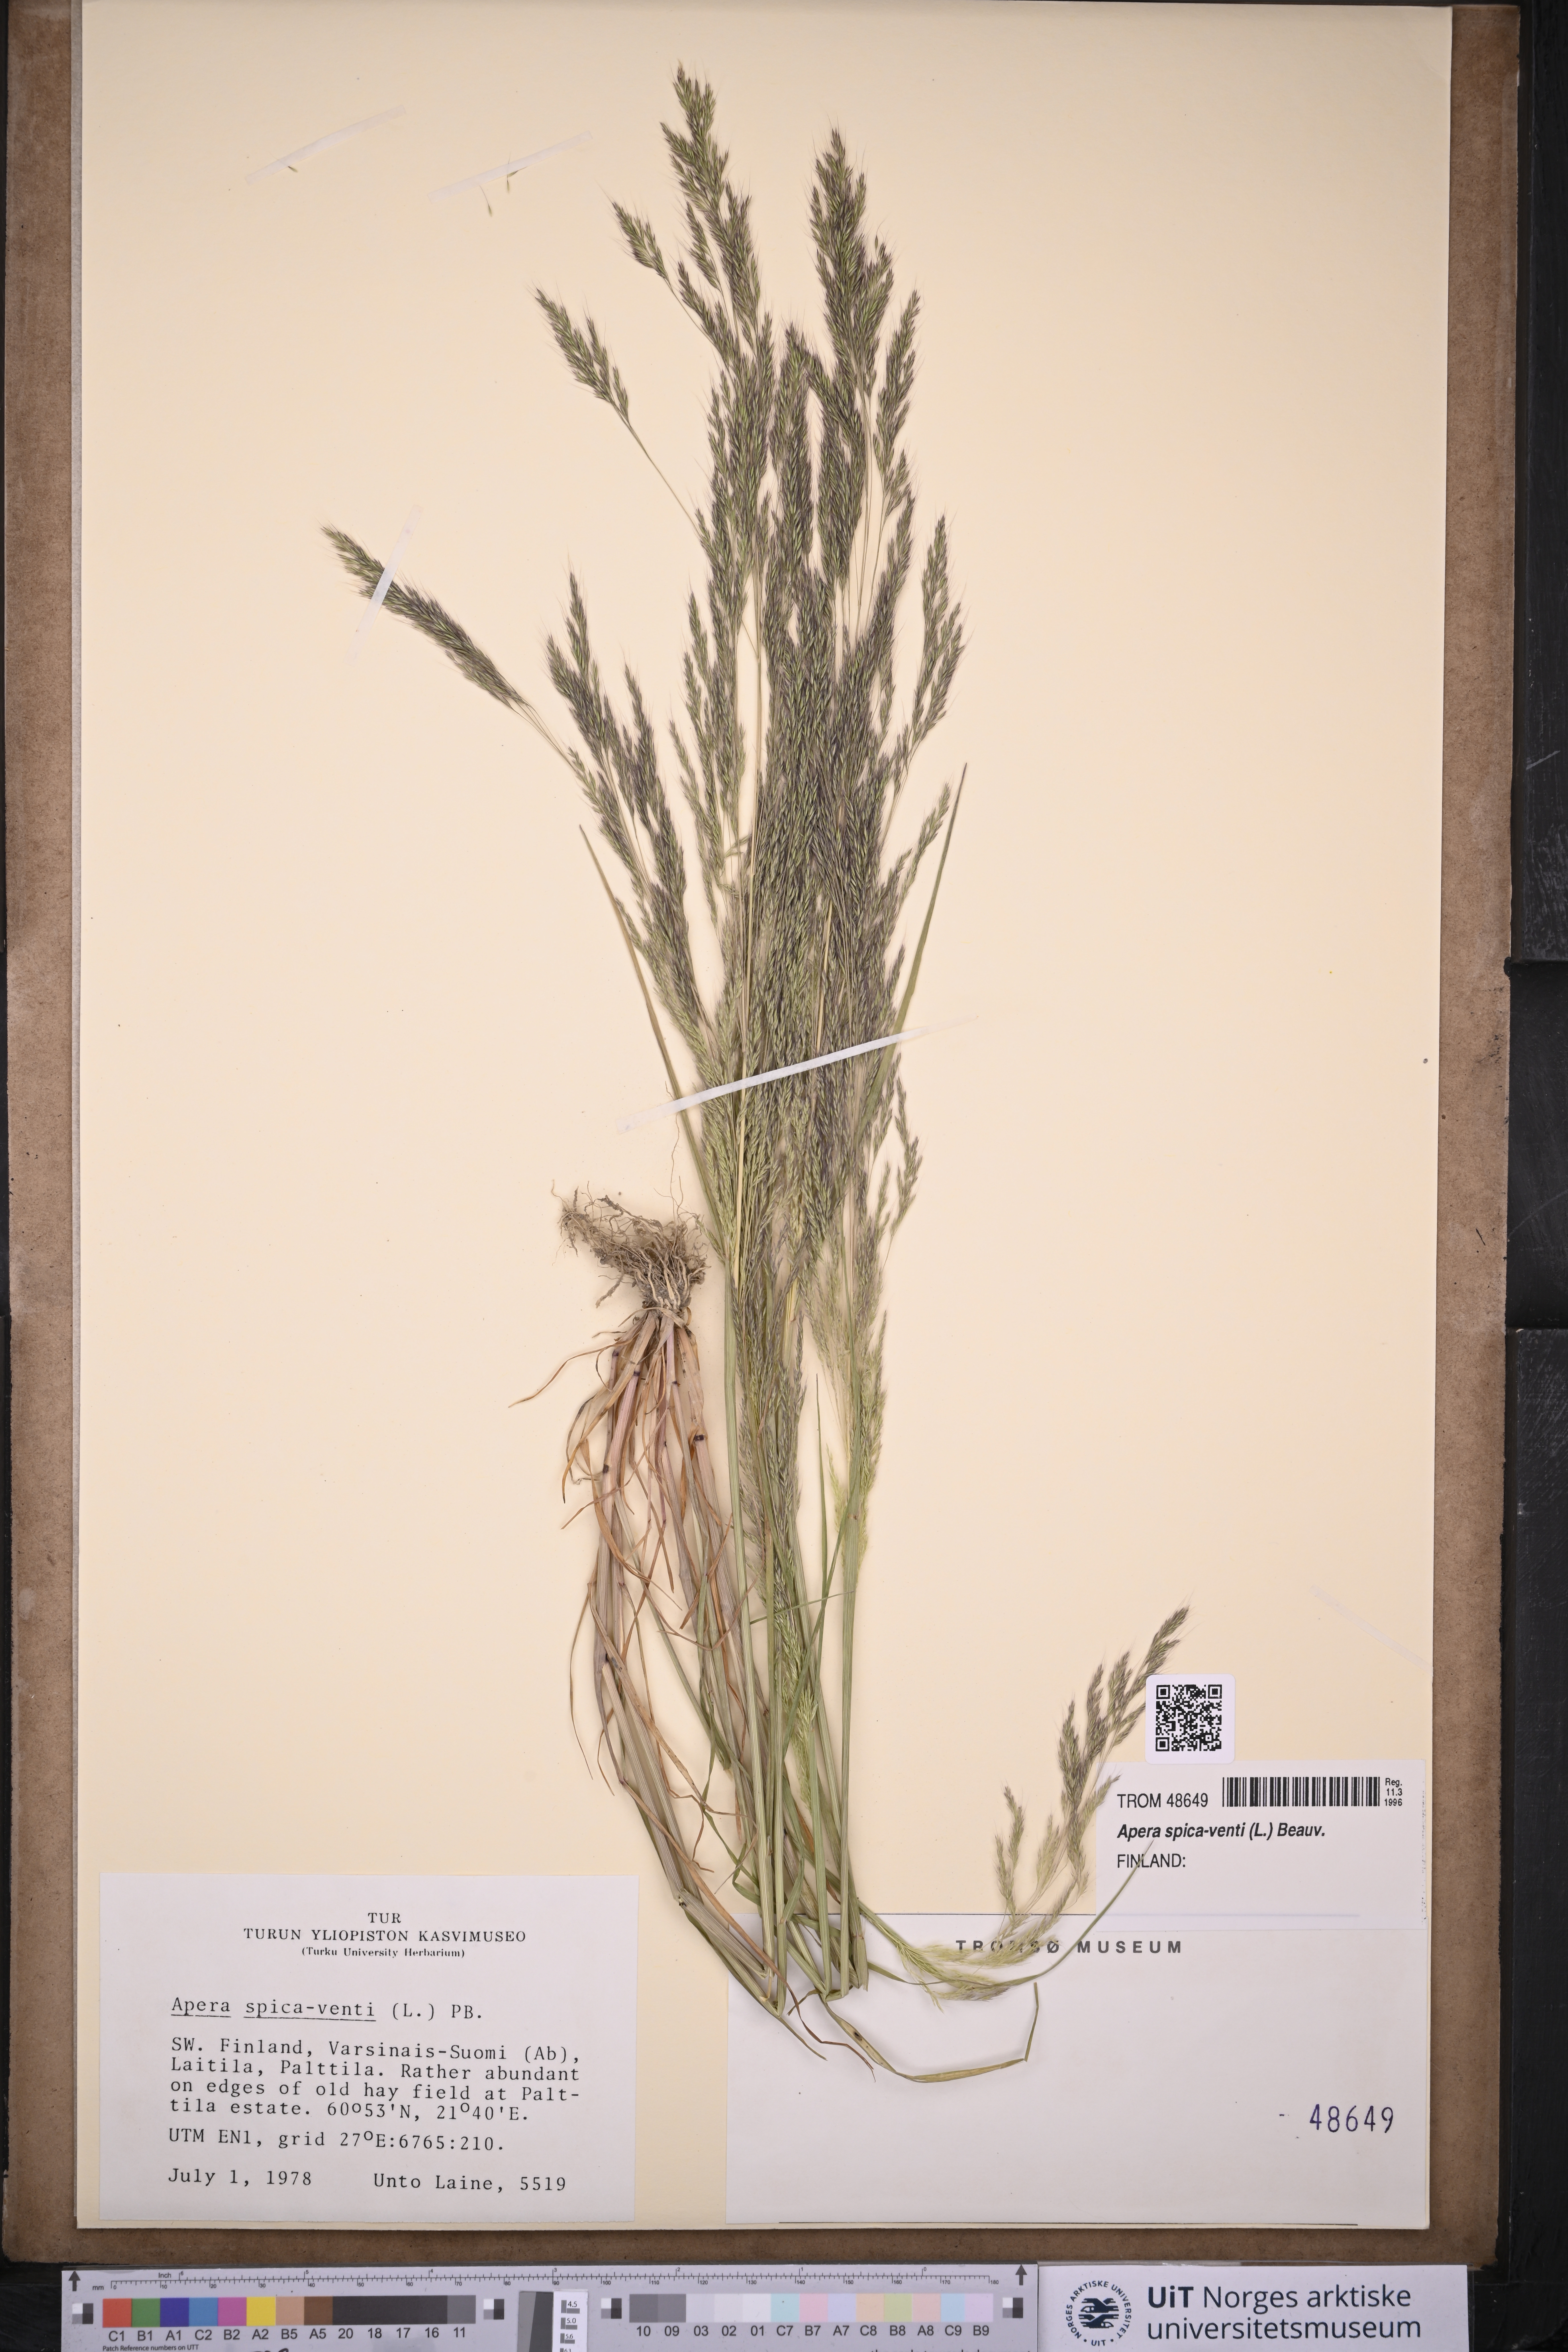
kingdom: Plantae
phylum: Tracheophyta
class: Liliopsida
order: Poales
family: Poaceae
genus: Apera
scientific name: Apera spica-venti
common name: Loose silky-bent
